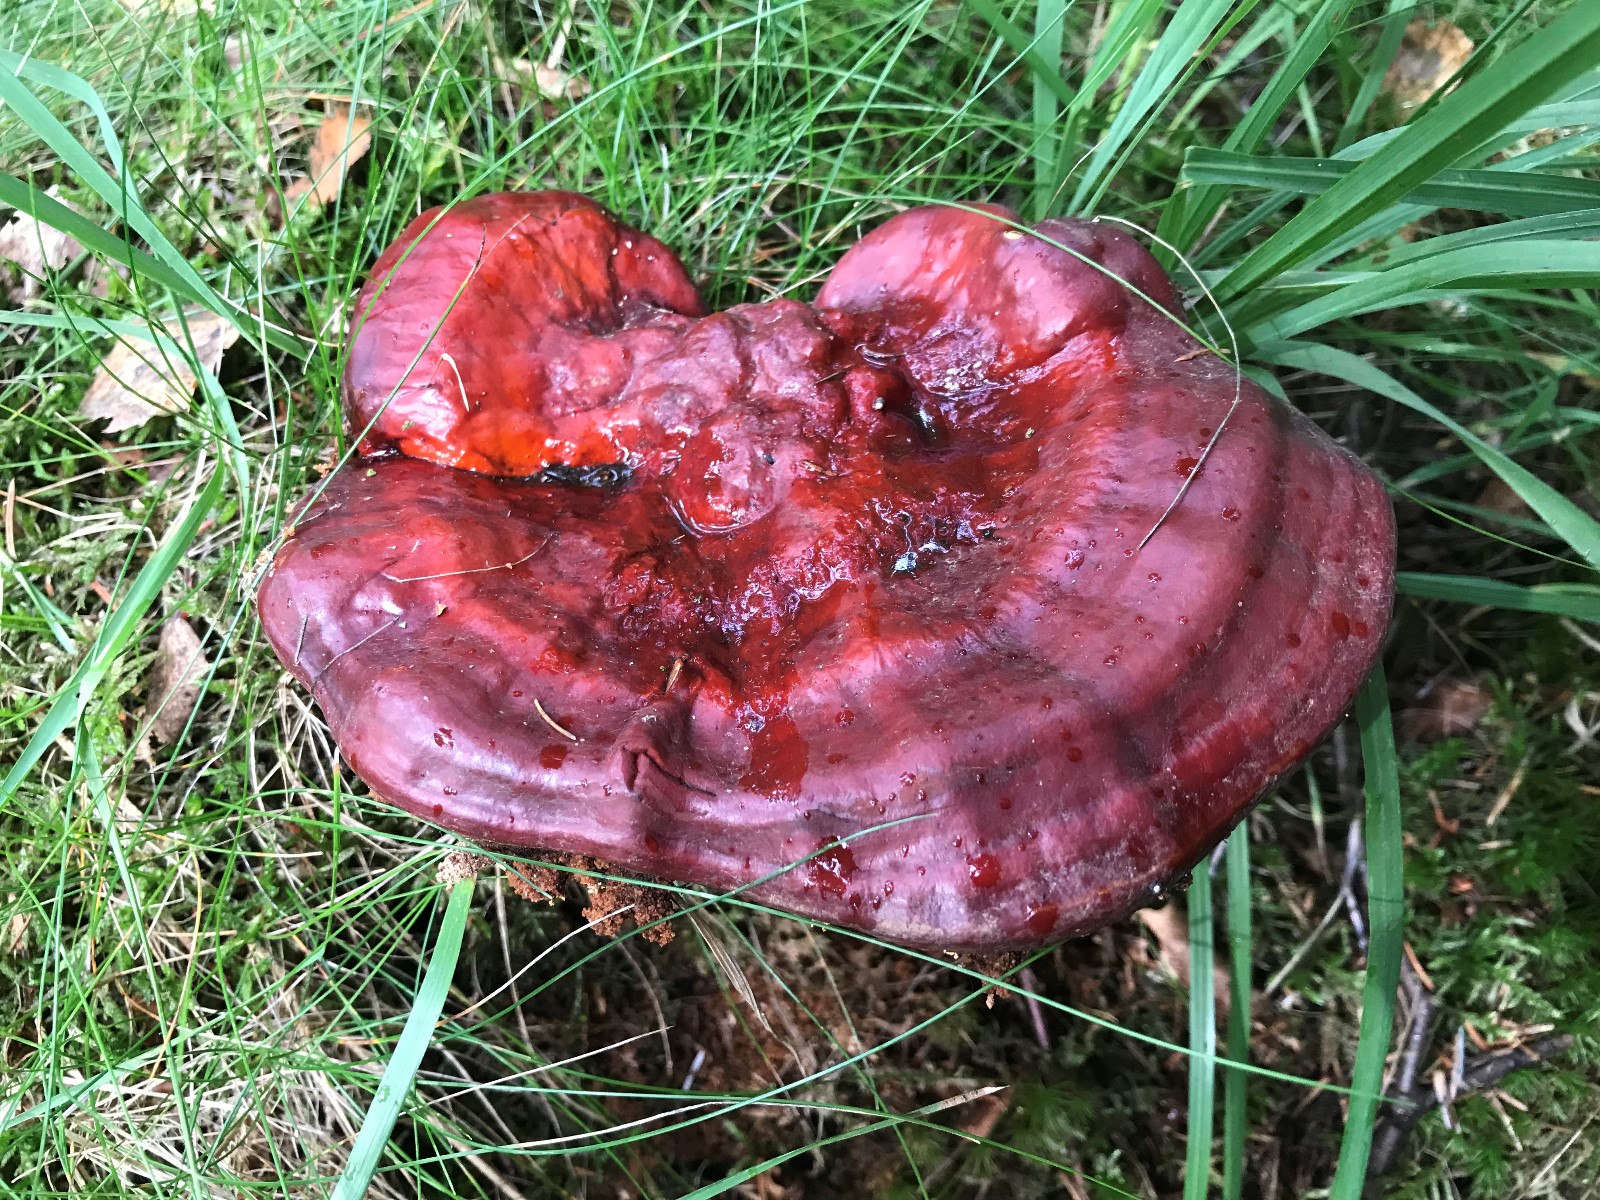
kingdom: Fungi
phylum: Basidiomycota
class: Agaricomycetes
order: Polyporales
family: Polyporaceae
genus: Ganoderma
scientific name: Ganoderma lucidum
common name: skinnende lakporesvamp
